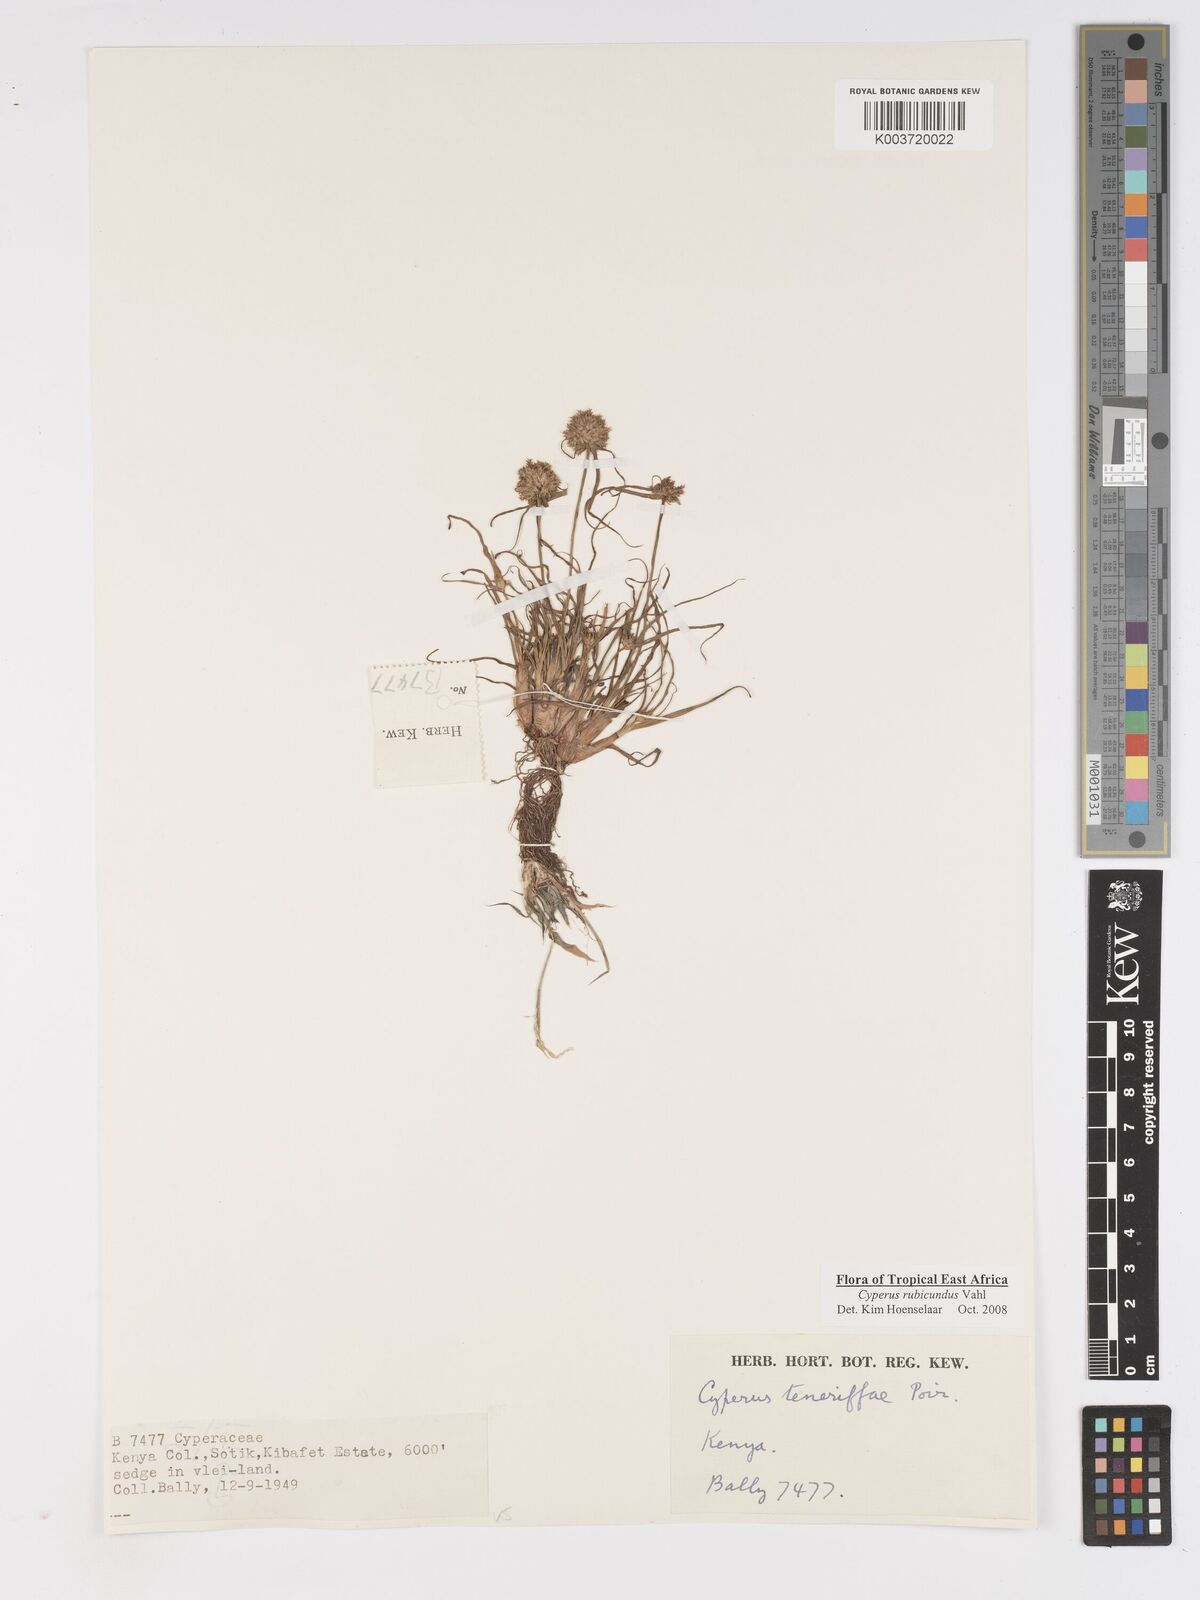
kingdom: Plantae
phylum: Tracheophyta
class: Liliopsida
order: Poales
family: Cyperaceae
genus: Cyperus
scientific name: Cyperus rubicundus
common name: Coco-grass
